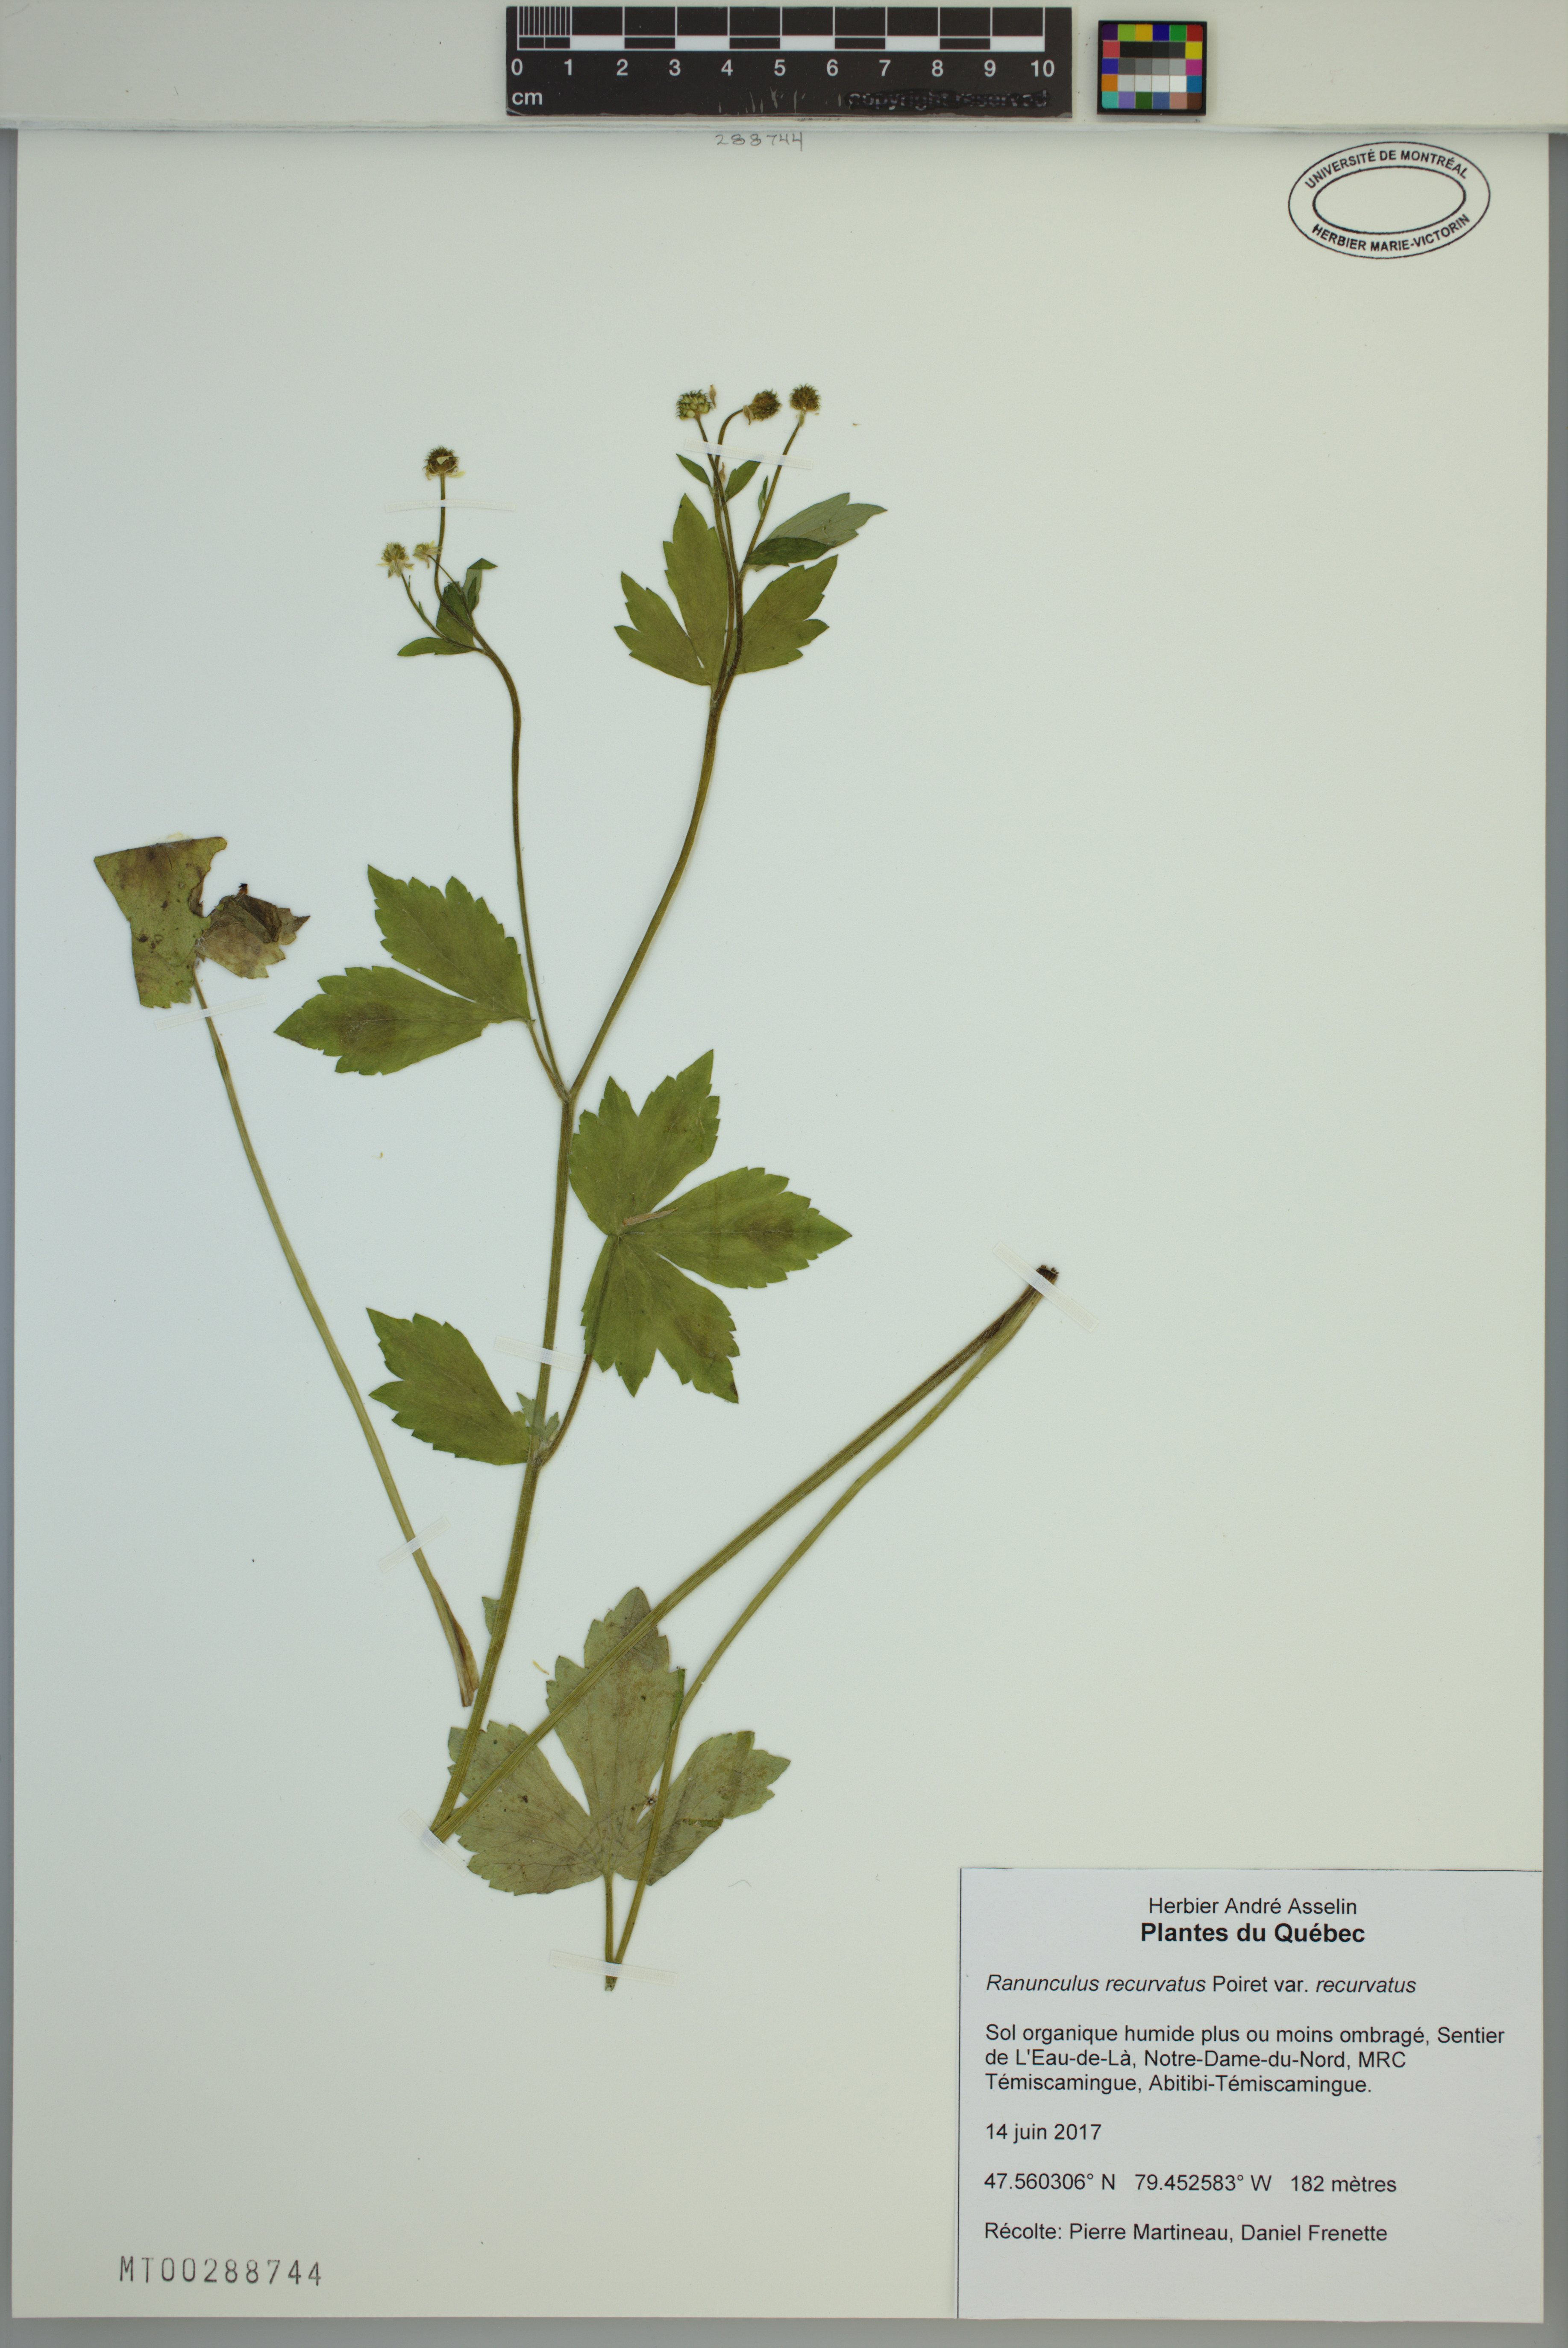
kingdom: Plantae
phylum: Tracheophyta
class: Magnoliopsida
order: Ranunculales
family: Ranunculaceae
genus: Ranunculus
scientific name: Ranunculus recurvatus
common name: Blisterwort
